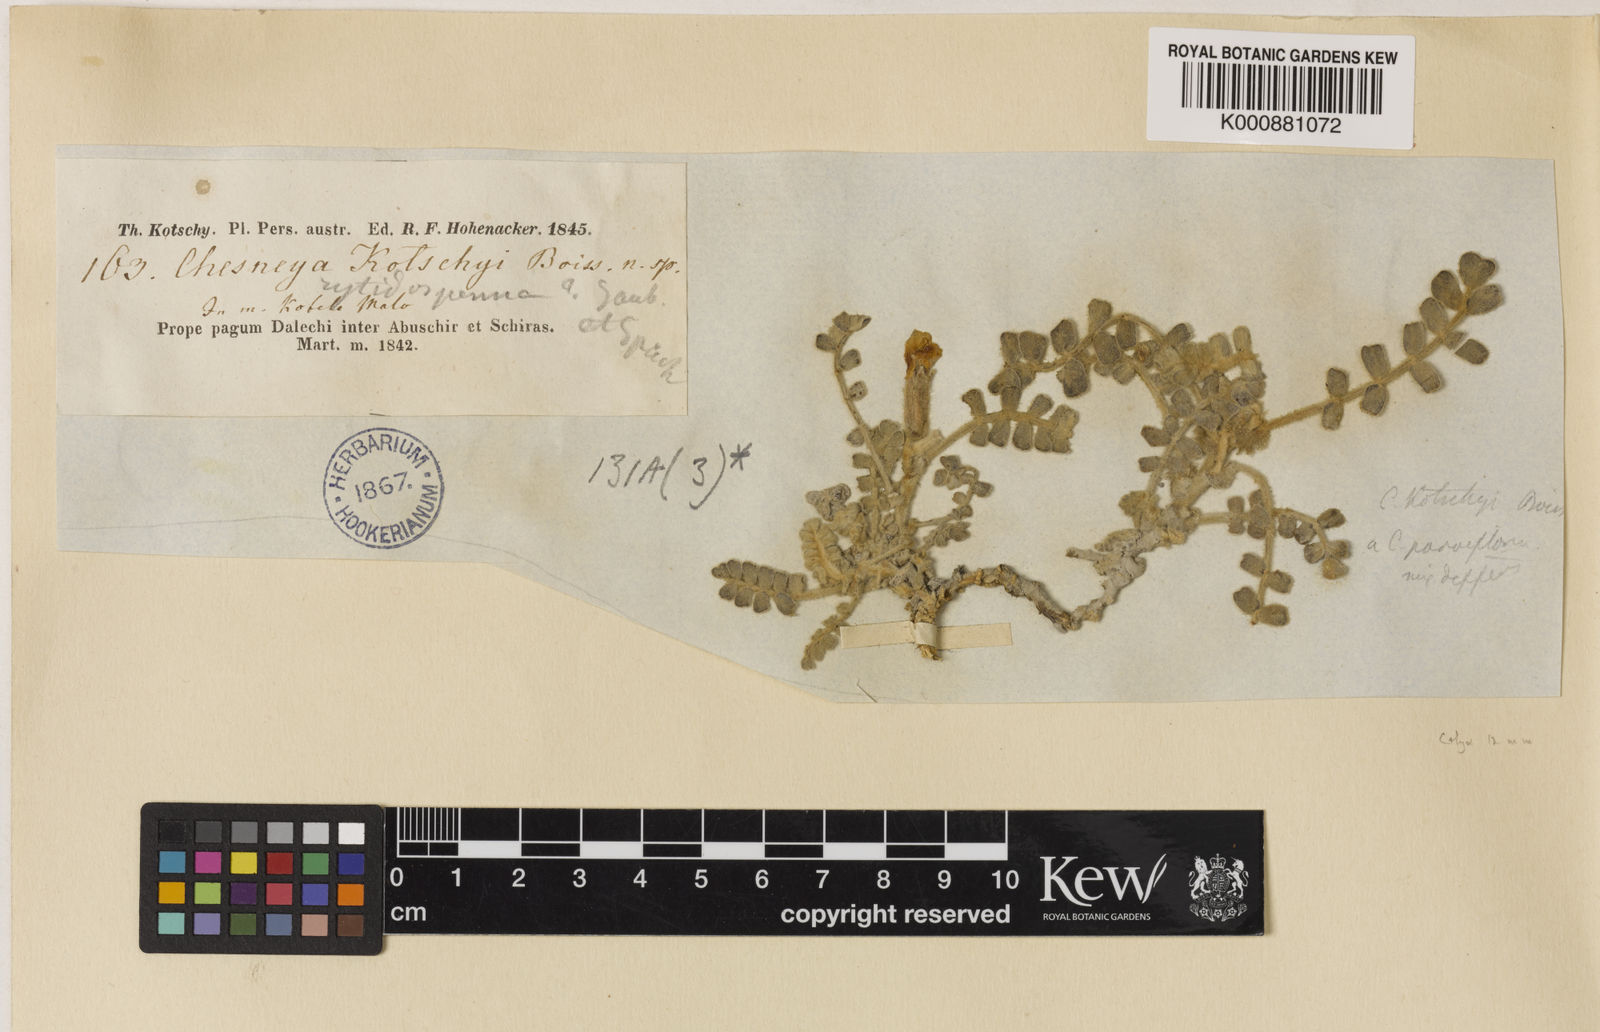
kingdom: Plantae
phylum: Tracheophyta
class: Magnoliopsida
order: Fabales
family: Fabaceae
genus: Chesneya
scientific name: Chesneya kotschyi
